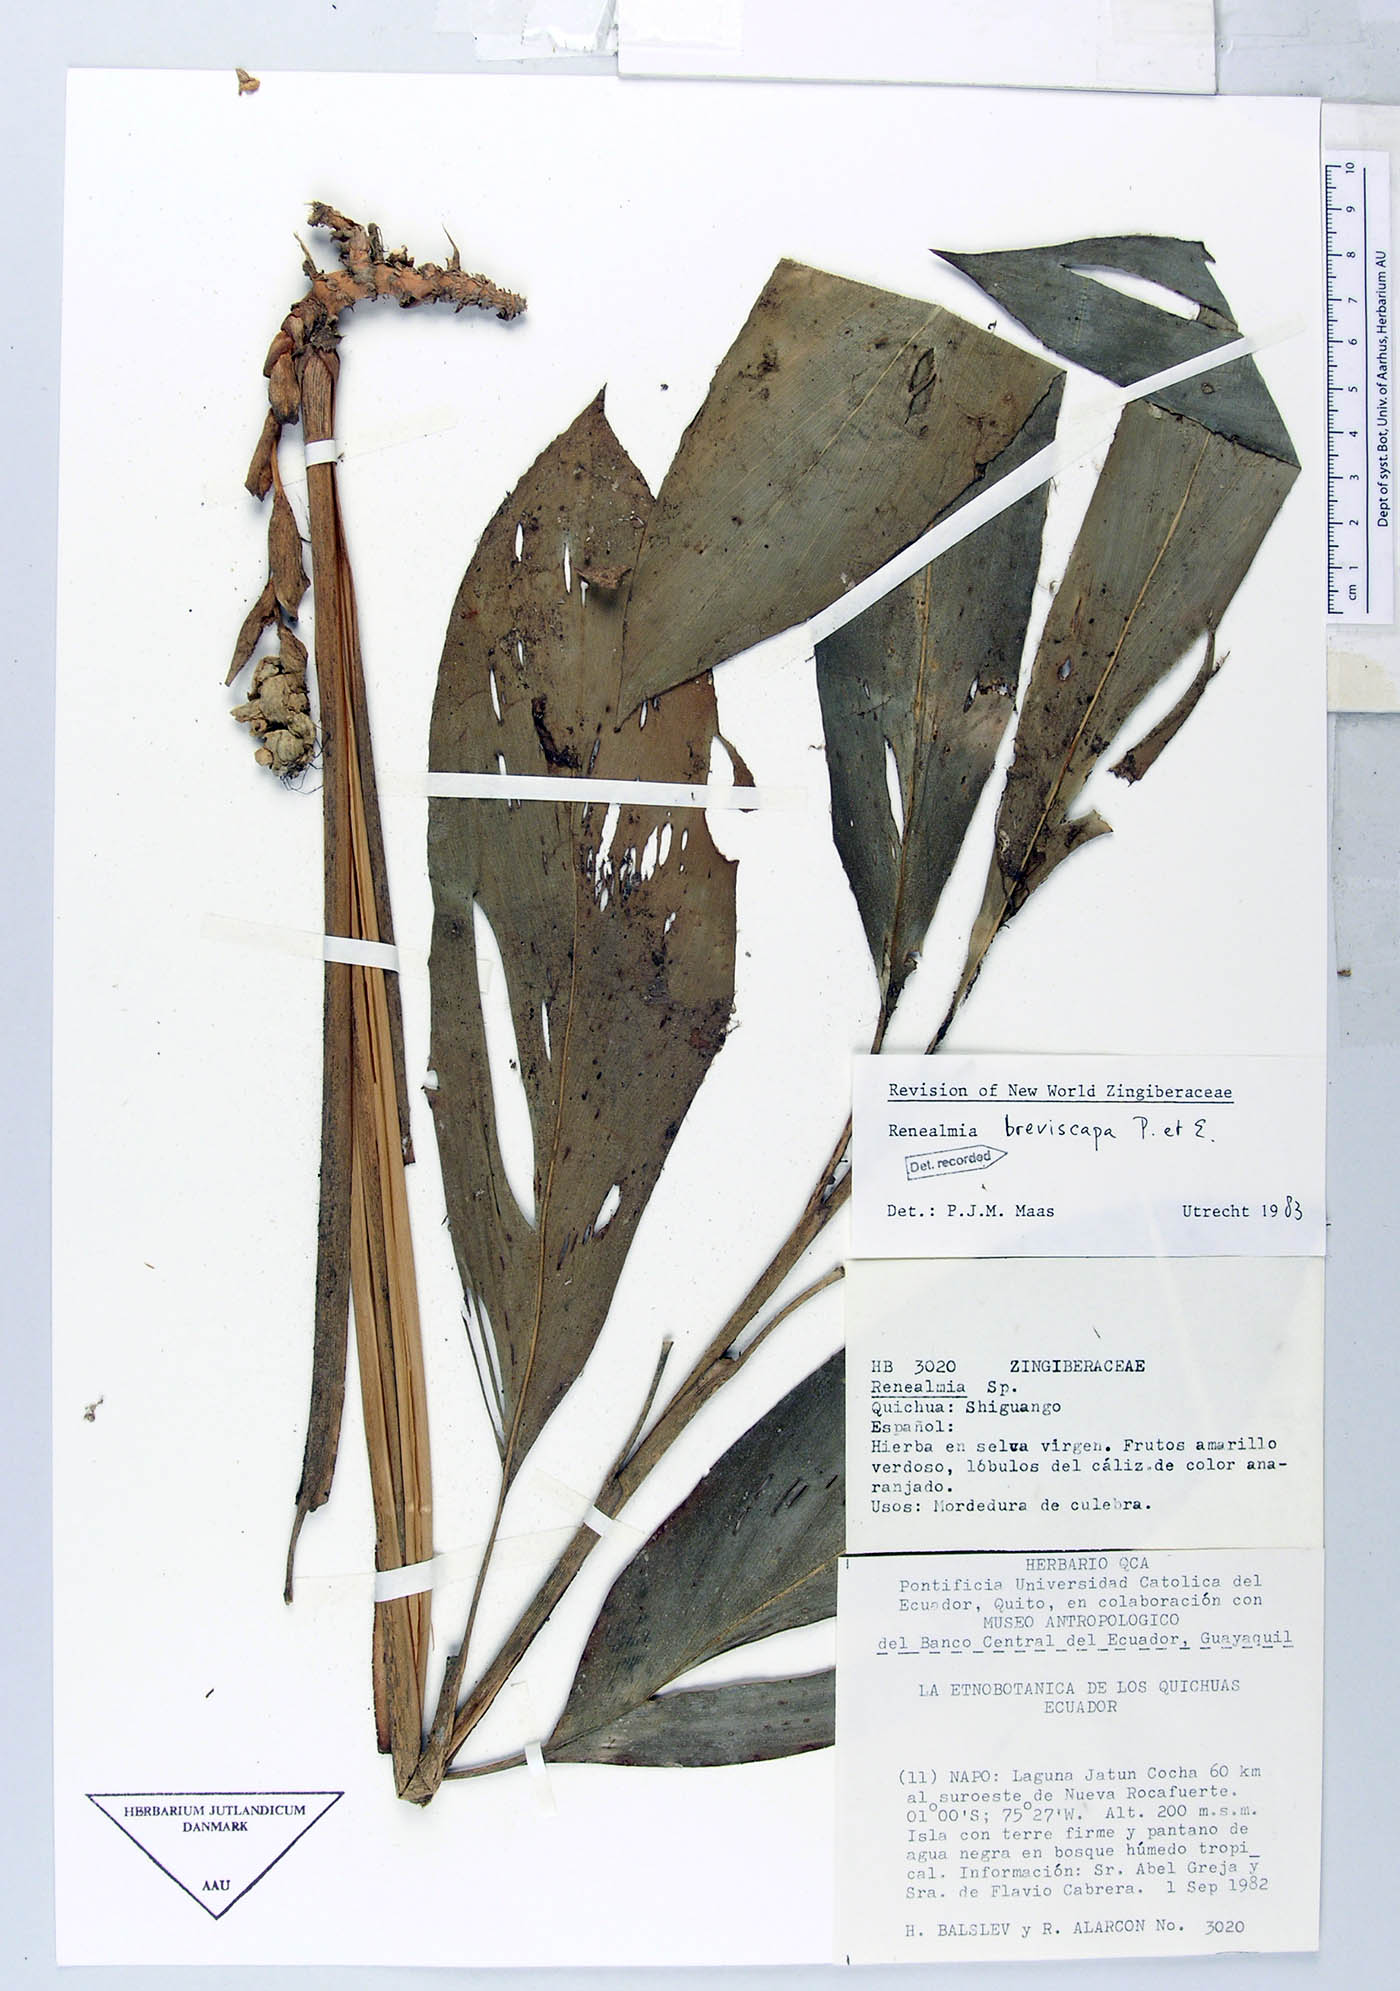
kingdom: Plantae
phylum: Tracheophyta
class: Liliopsida
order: Zingiberales
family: Zingiberaceae
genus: Renealmia
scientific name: Renealmia breviscapa
